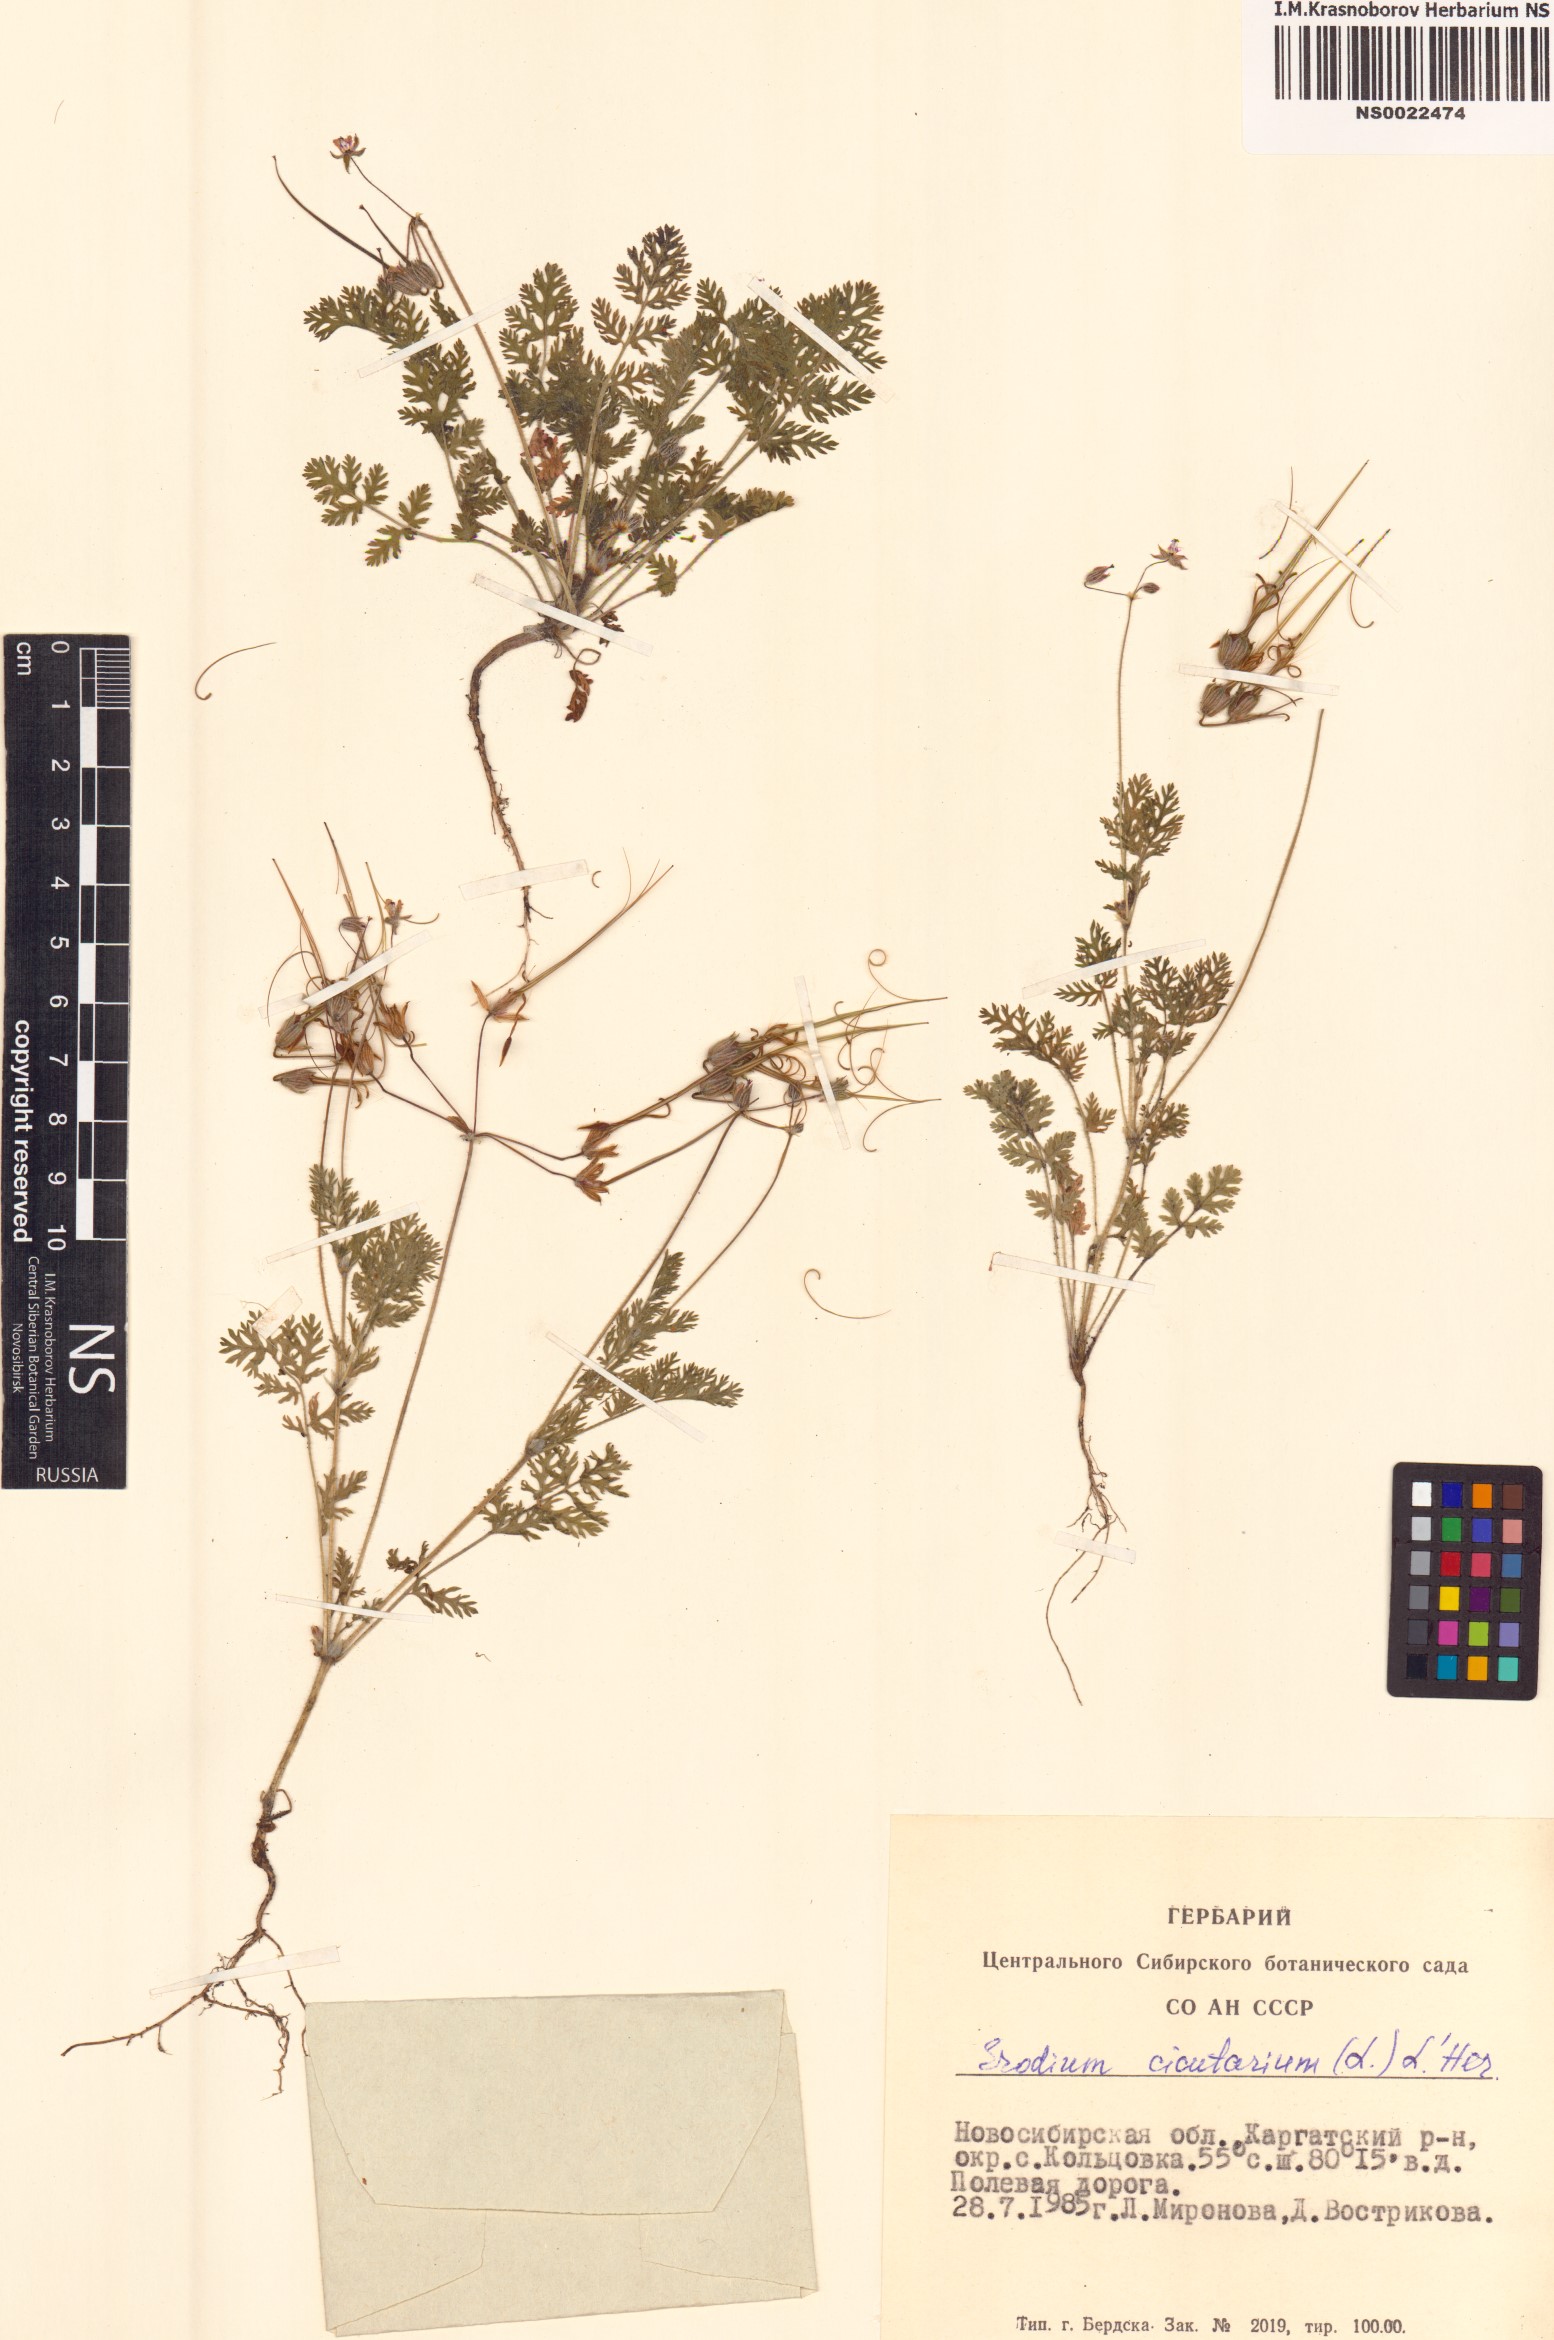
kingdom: Plantae
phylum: Tracheophyta
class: Magnoliopsida
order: Geraniales
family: Geraniaceae
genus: Erodium
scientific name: Erodium cicutarium
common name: Common stork's-bill
